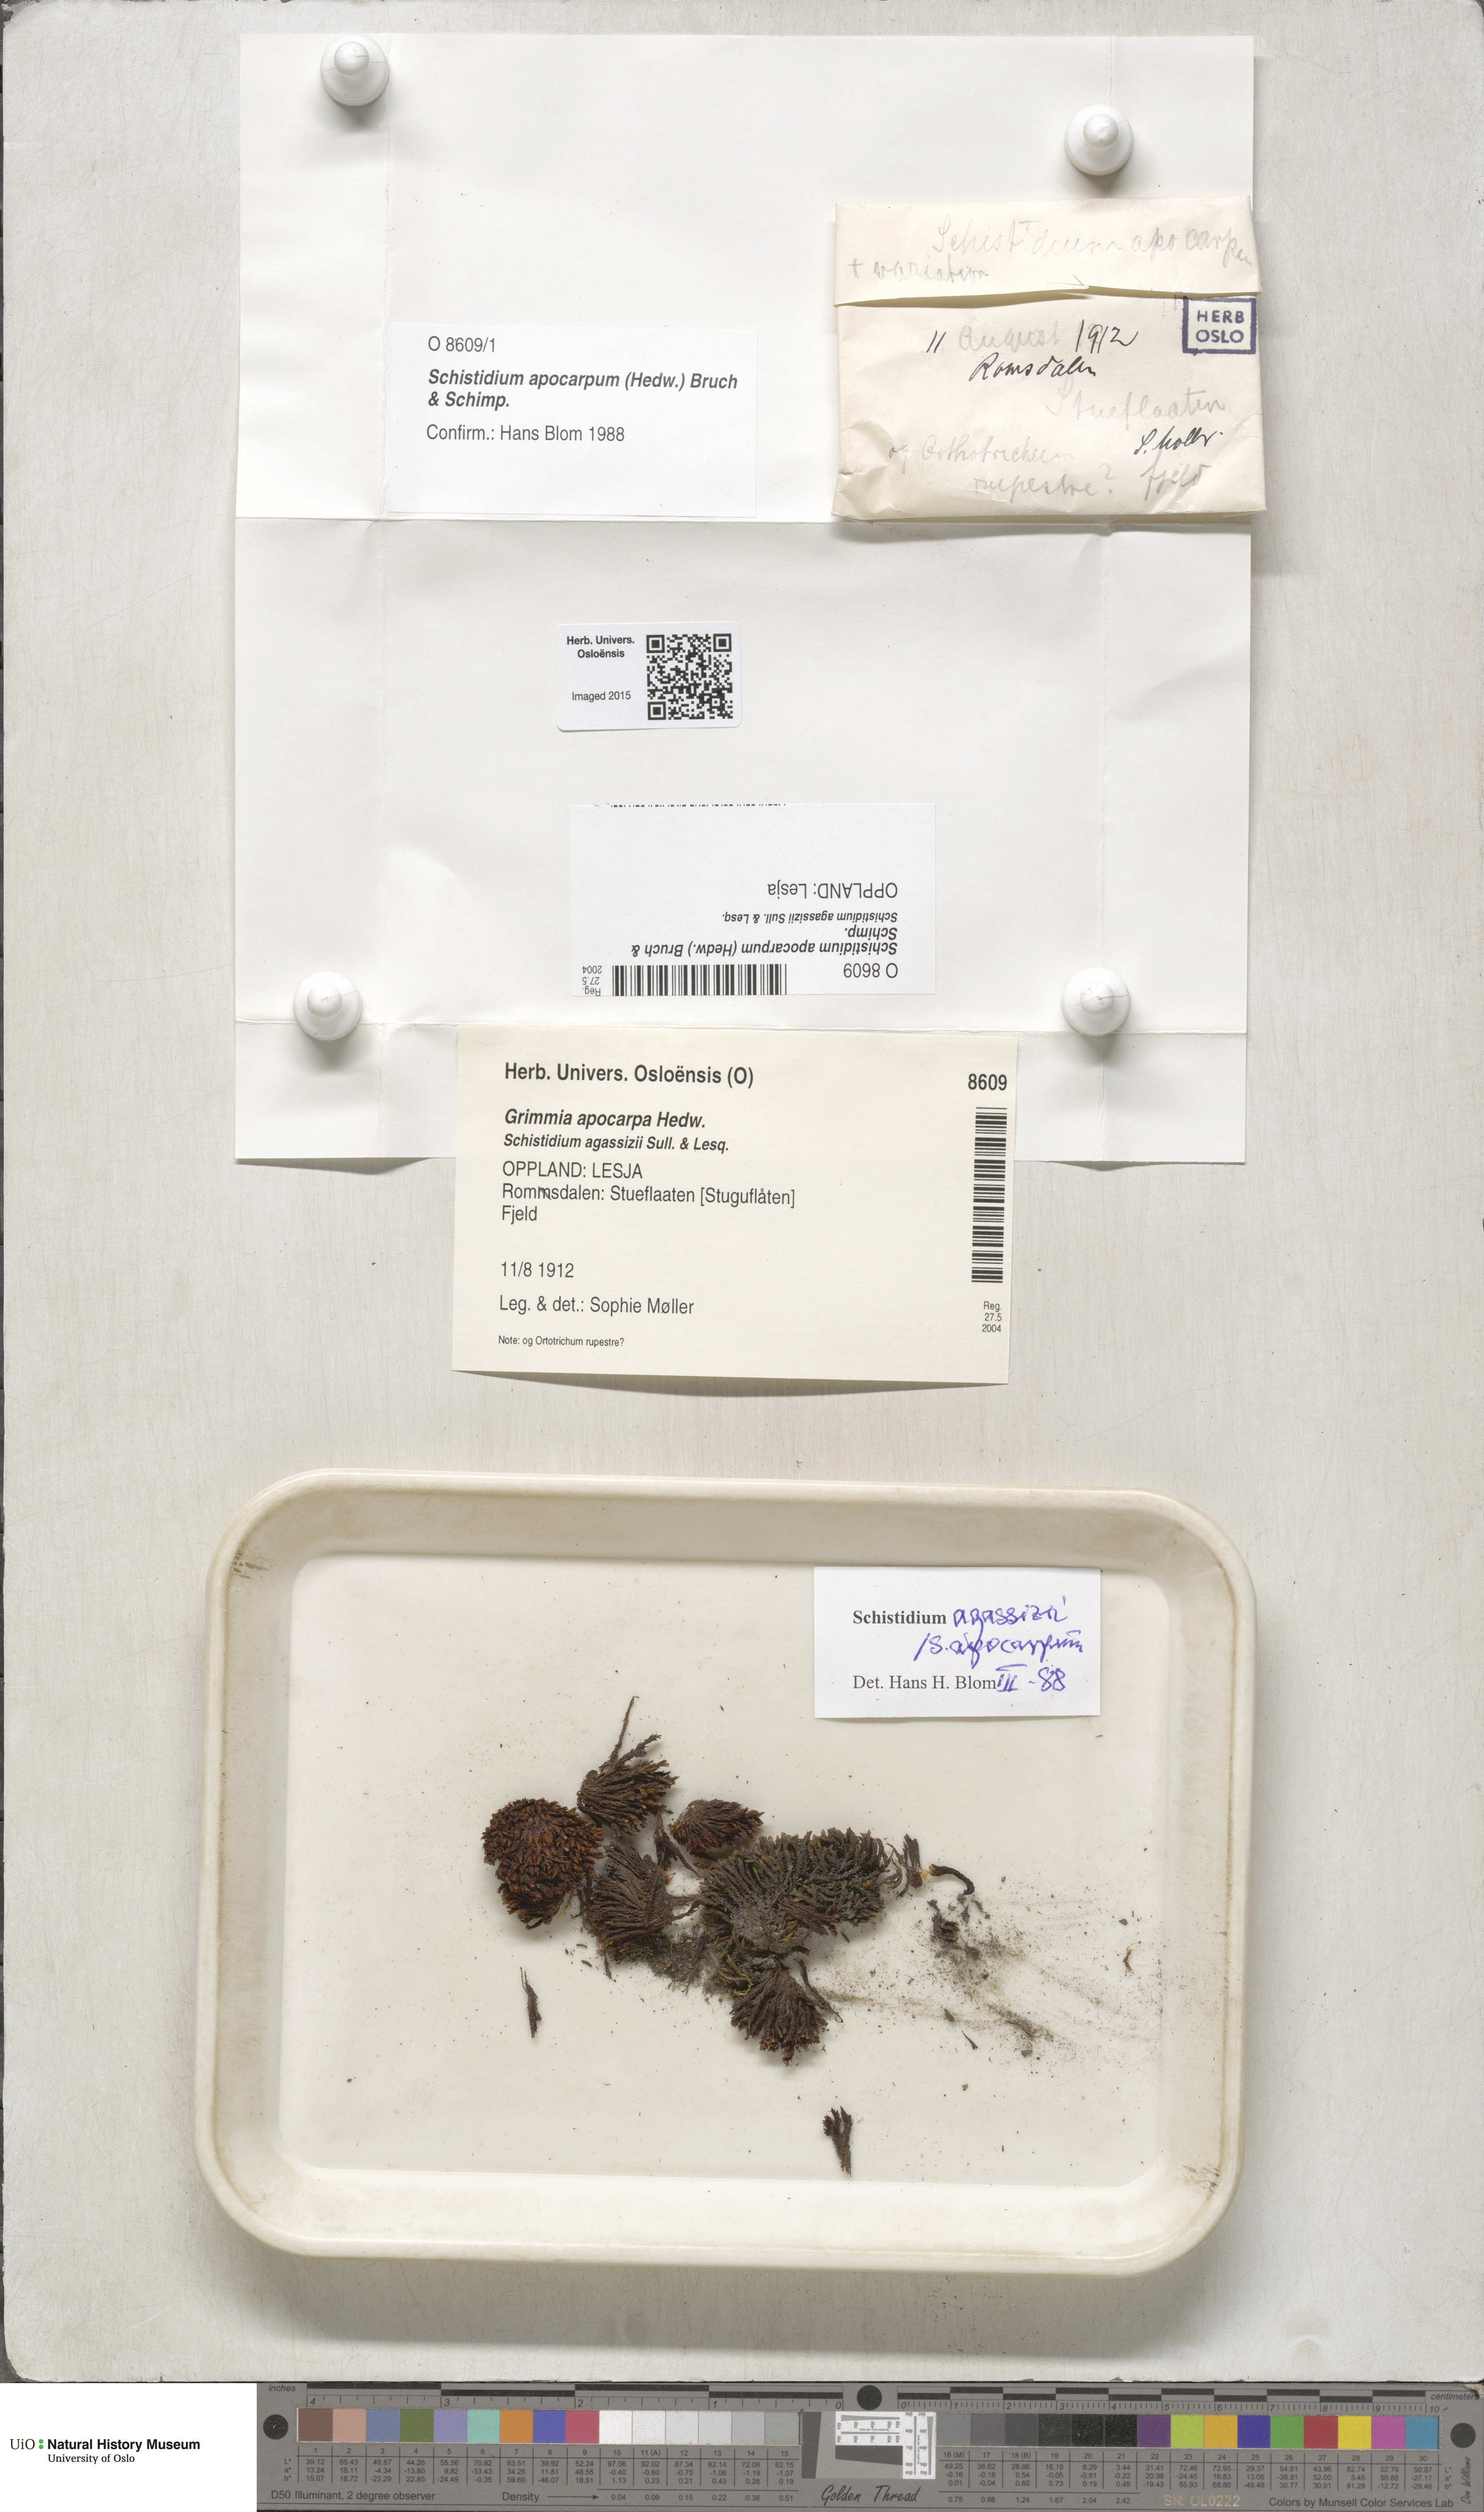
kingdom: Plantae
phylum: Bryophyta
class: Bryopsida
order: Grimmiales
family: Grimmiaceae
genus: Schistidium
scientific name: Schistidium apocarpum
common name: Radiate bloom moss
